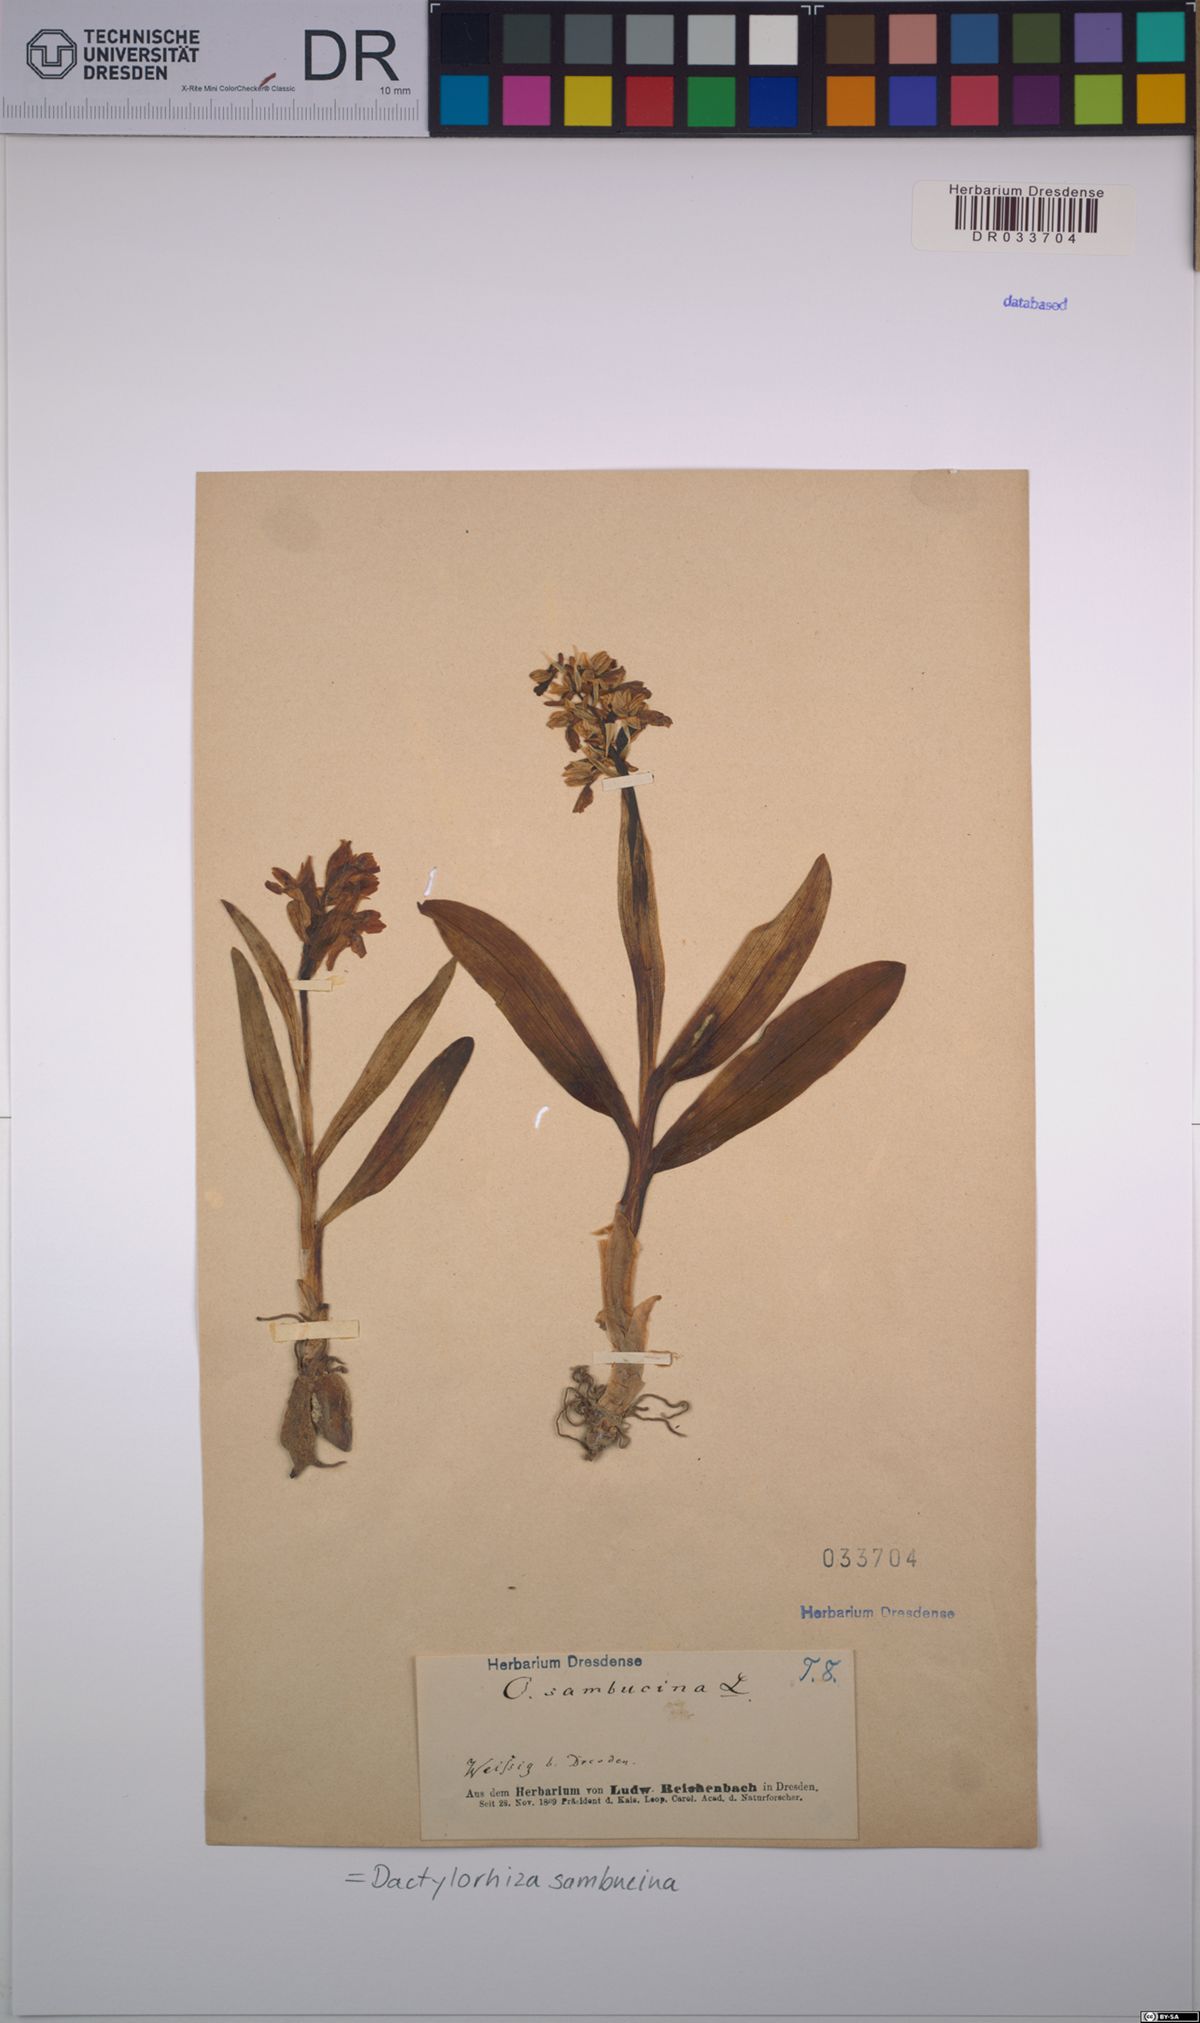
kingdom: Plantae
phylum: Tracheophyta
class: Liliopsida
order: Asparagales
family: Orchidaceae
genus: Dactylorhiza
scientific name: Dactylorhiza sambucina
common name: Elder-flowered orchid
